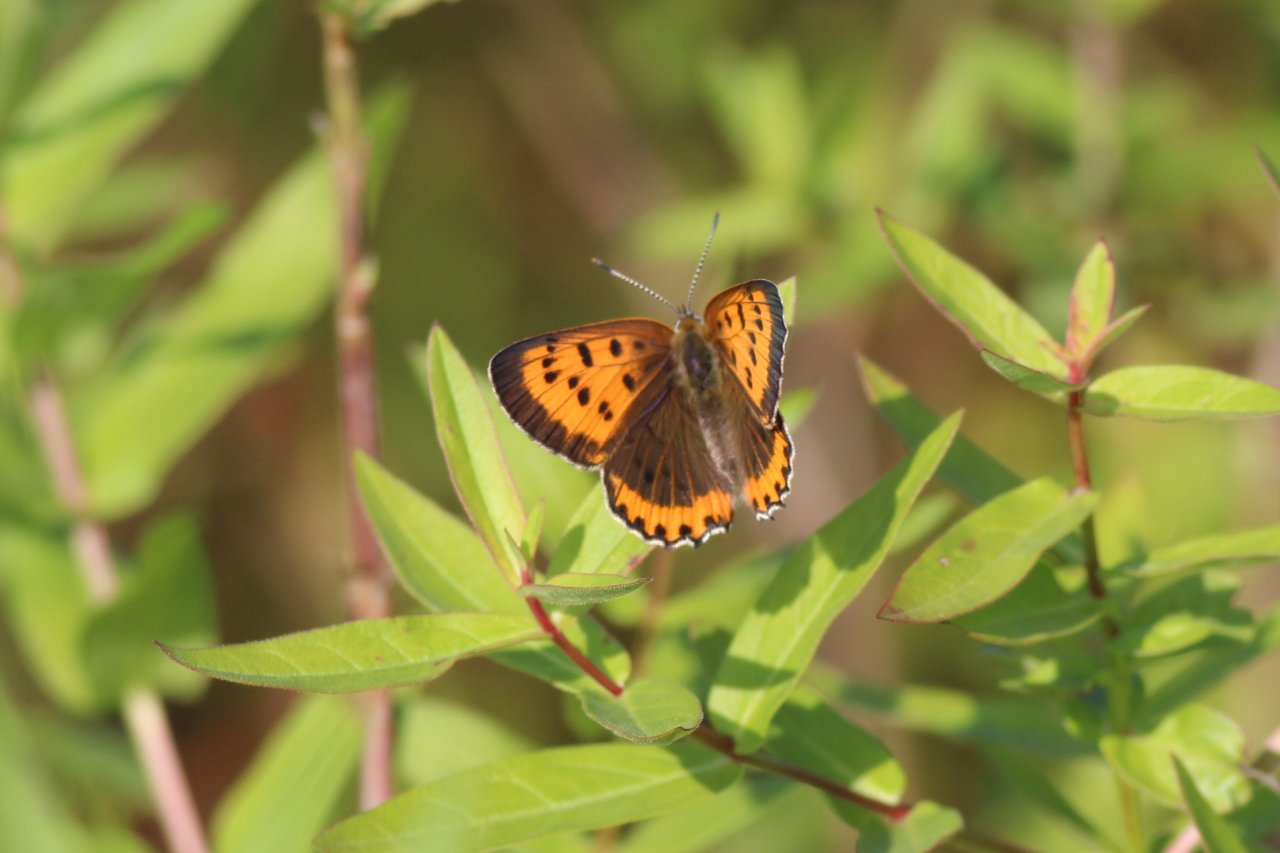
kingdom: Animalia
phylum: Arthropoda
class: Insecta
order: Lepidoptera
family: Sesiidae
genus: Sesia
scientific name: Sesia Lycaena hyllus
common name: Bronze Copper
